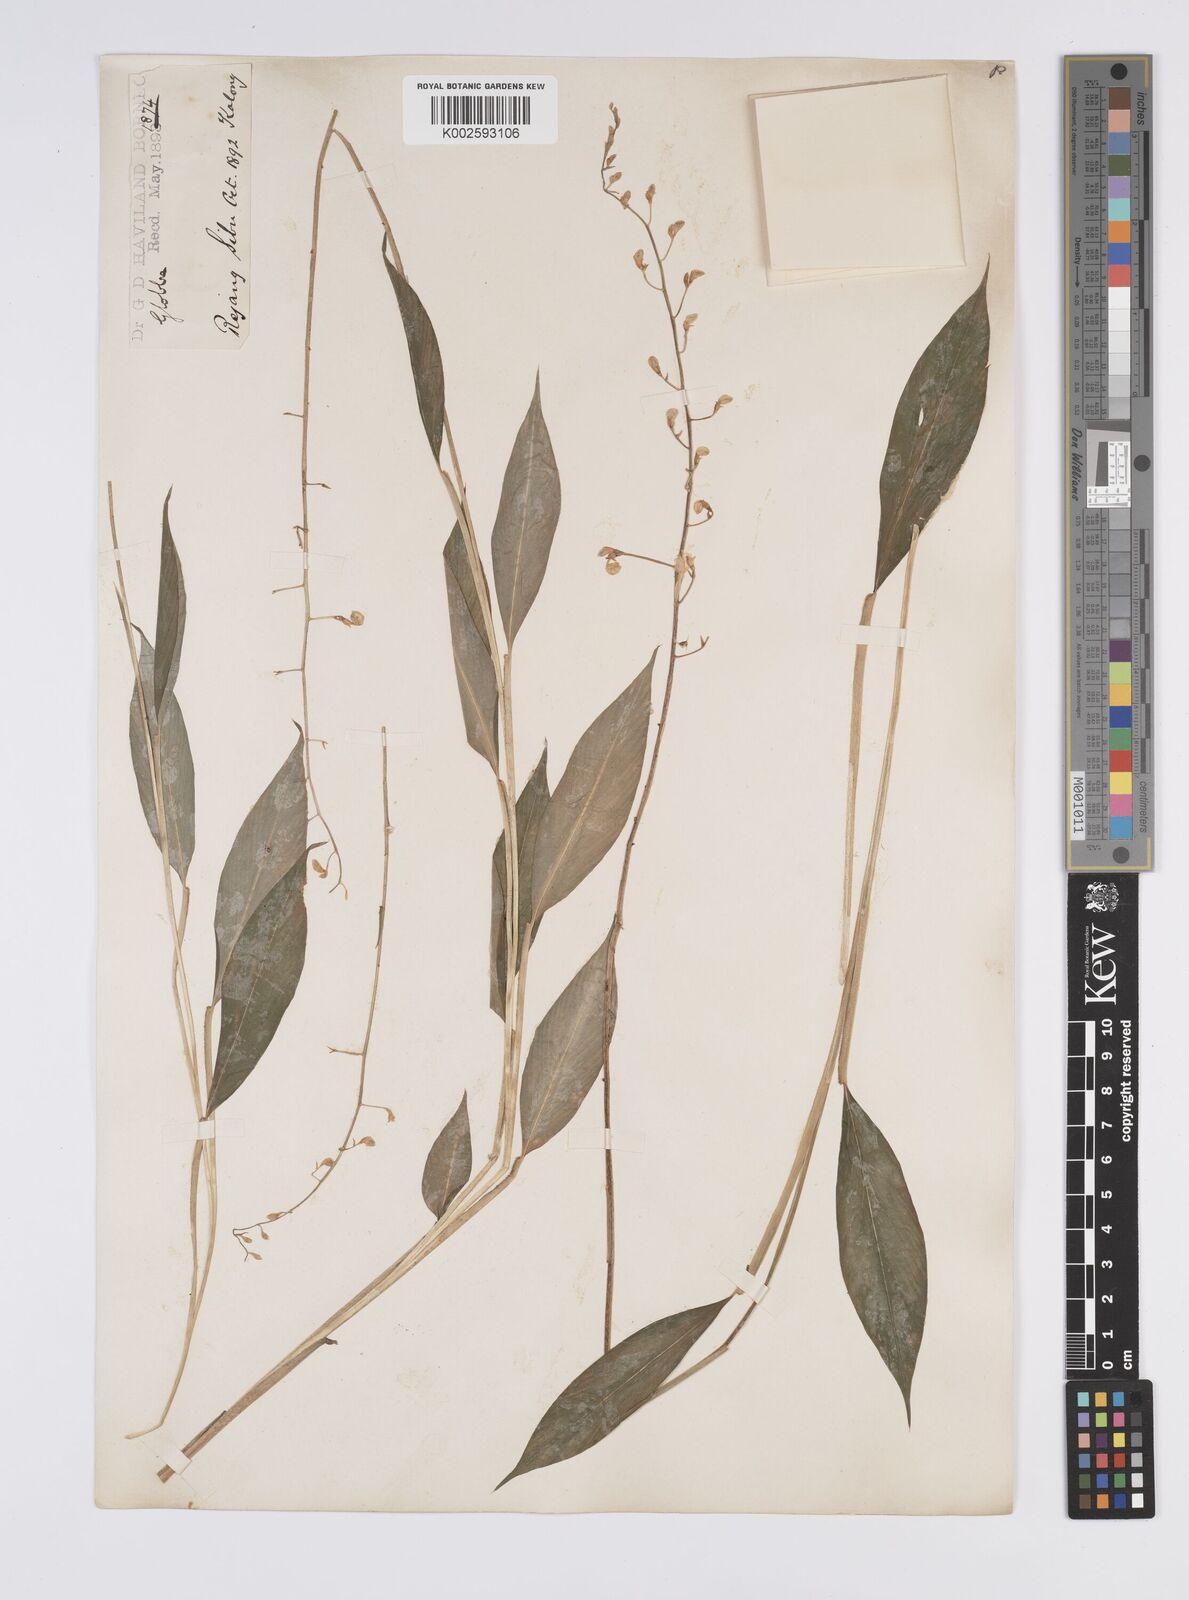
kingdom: Plantae
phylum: Tracheophyta
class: Liliopsida
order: Zingiberales
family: Zingiberaceae
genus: Globba
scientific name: Globba pendula
